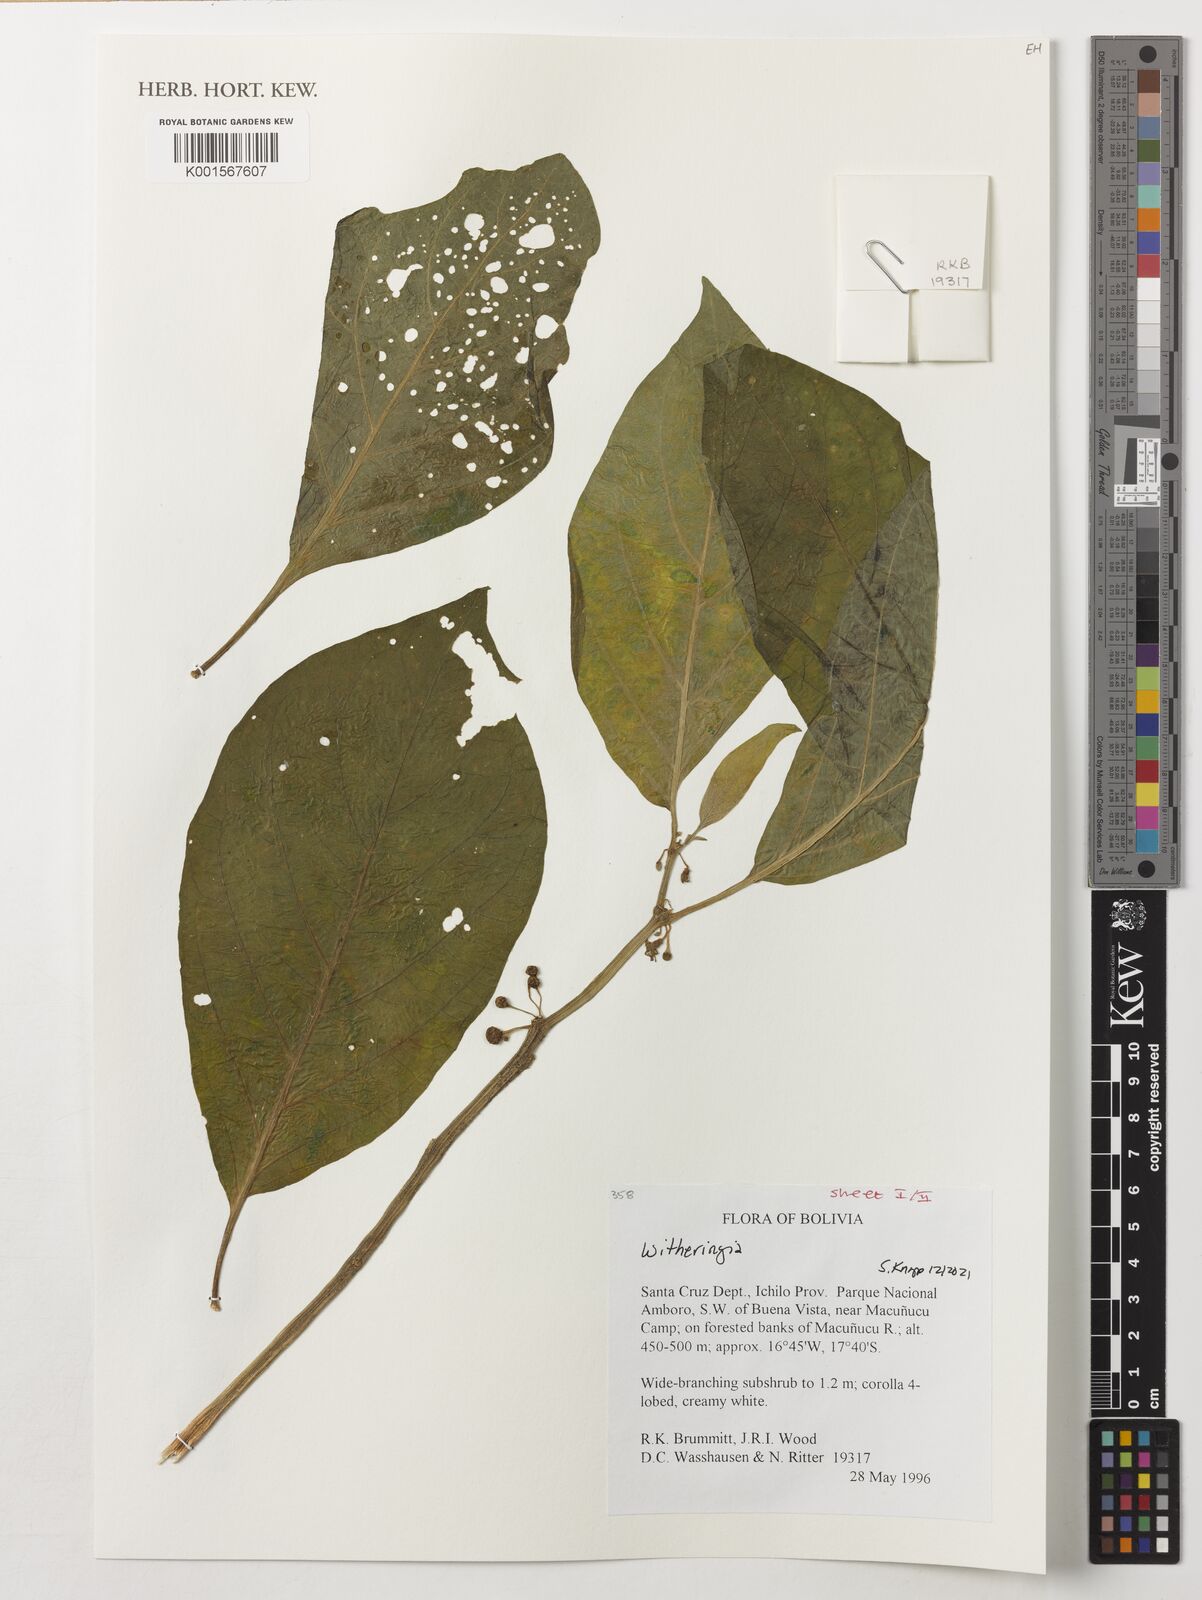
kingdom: Plantae
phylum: Tracheophyta
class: Magnoliopsida
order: Solanales
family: Solanaceae
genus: Witheringia
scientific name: Witheringia
